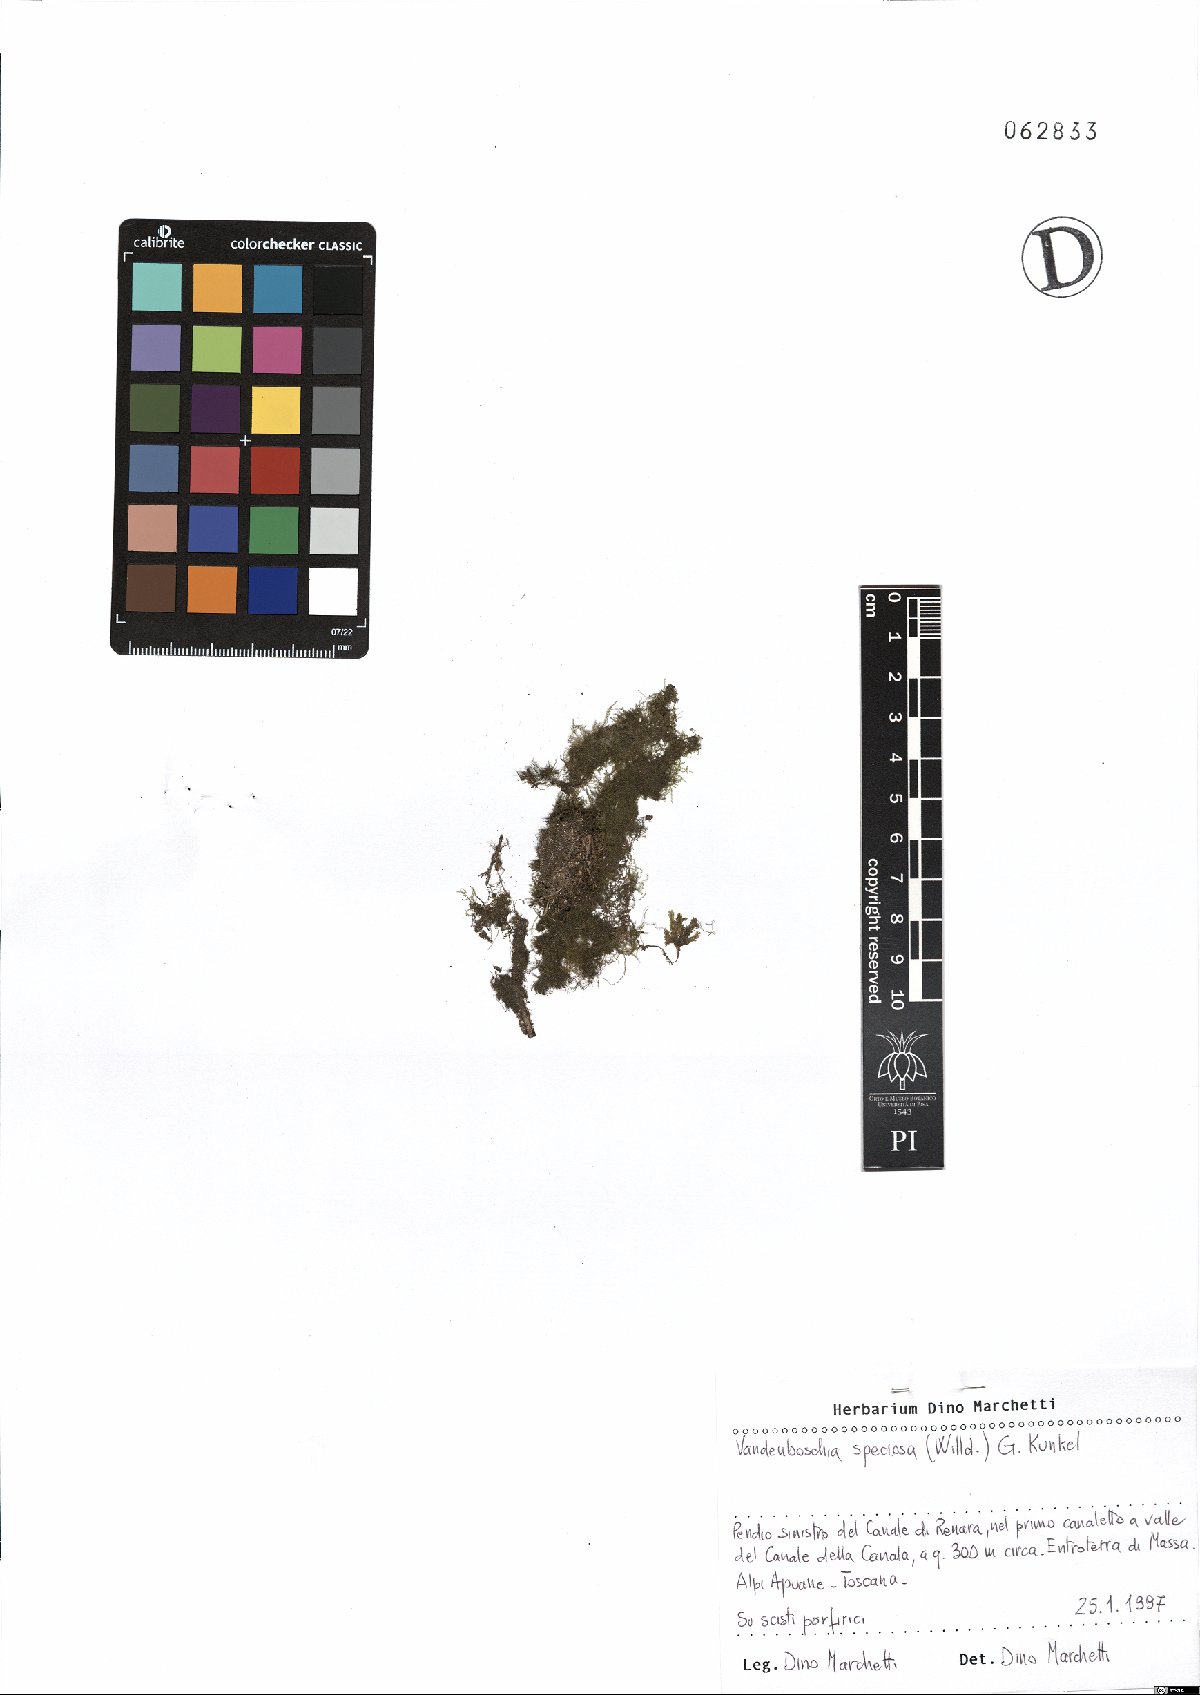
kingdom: Plantae
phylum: Tracheophyta
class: Polypodiopsida
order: Hymenophyllales
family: Hymenophyllaceae
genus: Vandenboschia
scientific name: Vandenboschia speciosa
